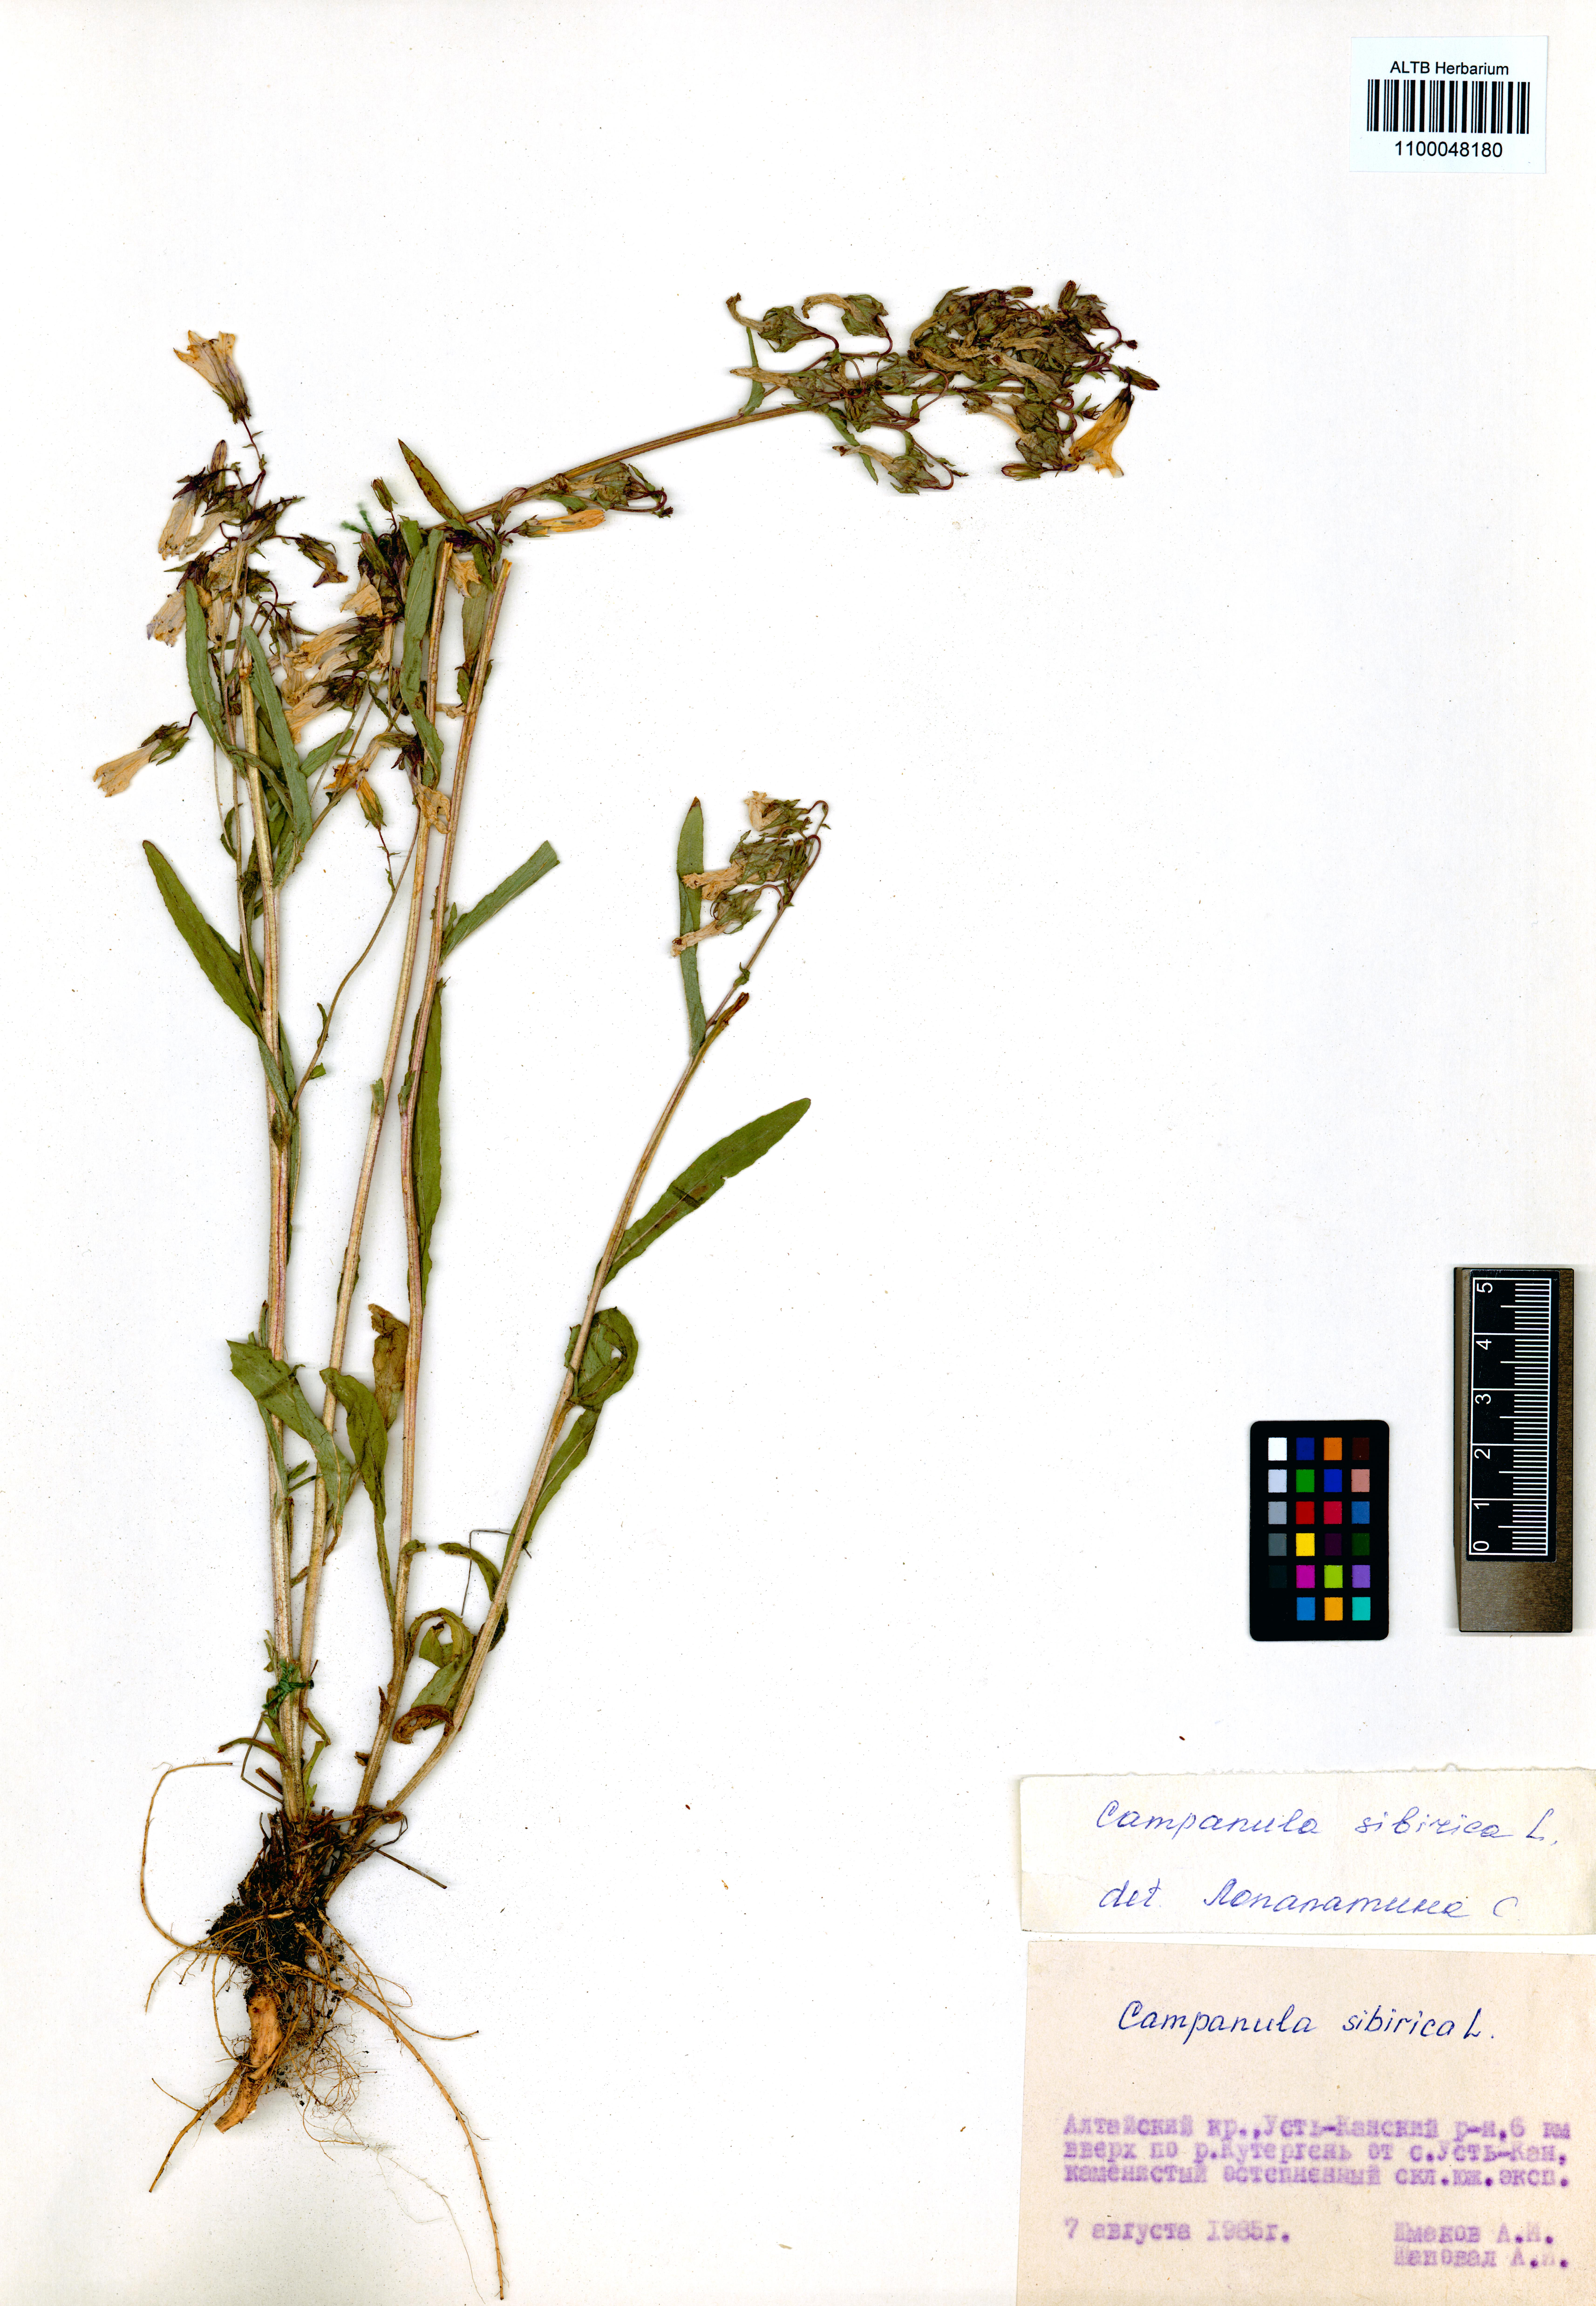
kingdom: Plantae
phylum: Tracheophyta
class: Magnoliopsida
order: Asterales
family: Campanulaceae
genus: Campanula
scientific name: Campanula sibirica
